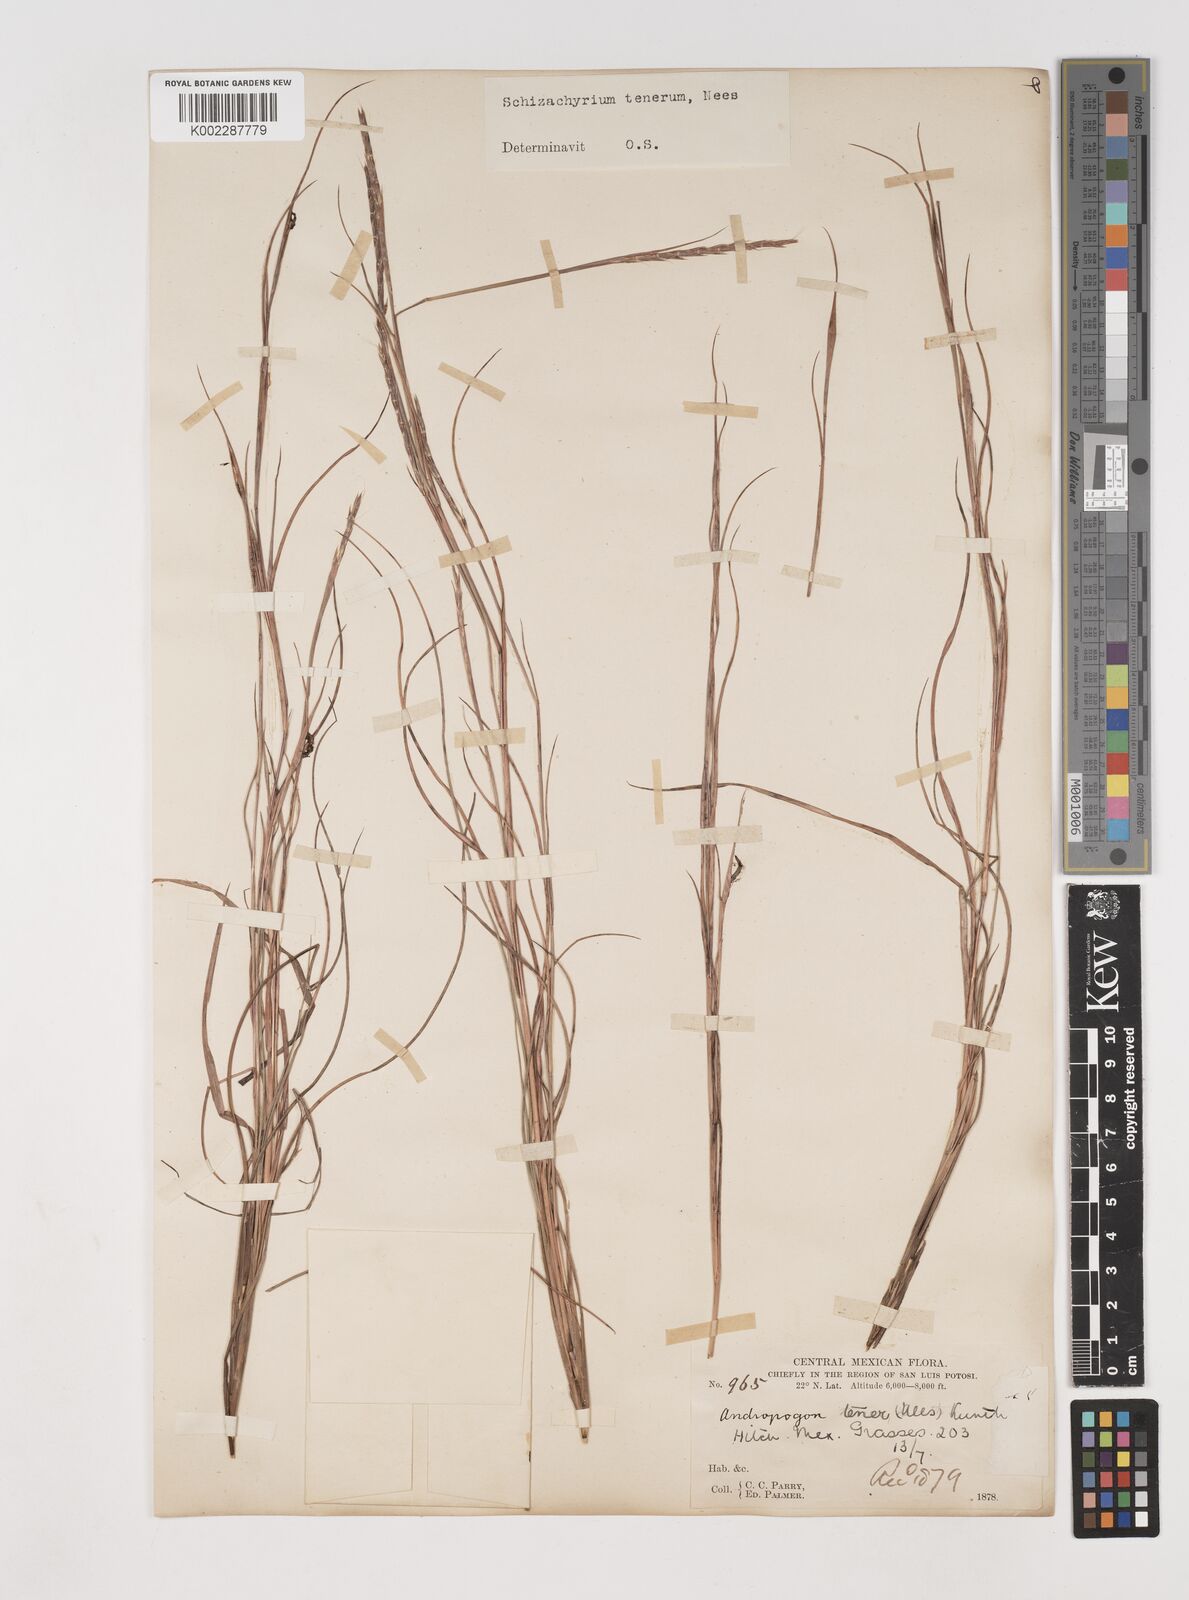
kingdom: Plantae
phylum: Tracheophyta
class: Liliopsida
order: Poales
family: Poaceae
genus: Andropogon
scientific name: Andropogon tener
